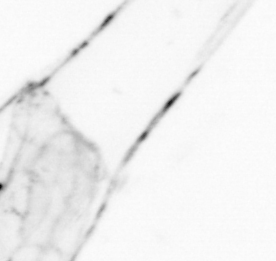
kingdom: Animalia
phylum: Chordata
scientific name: Chordata
